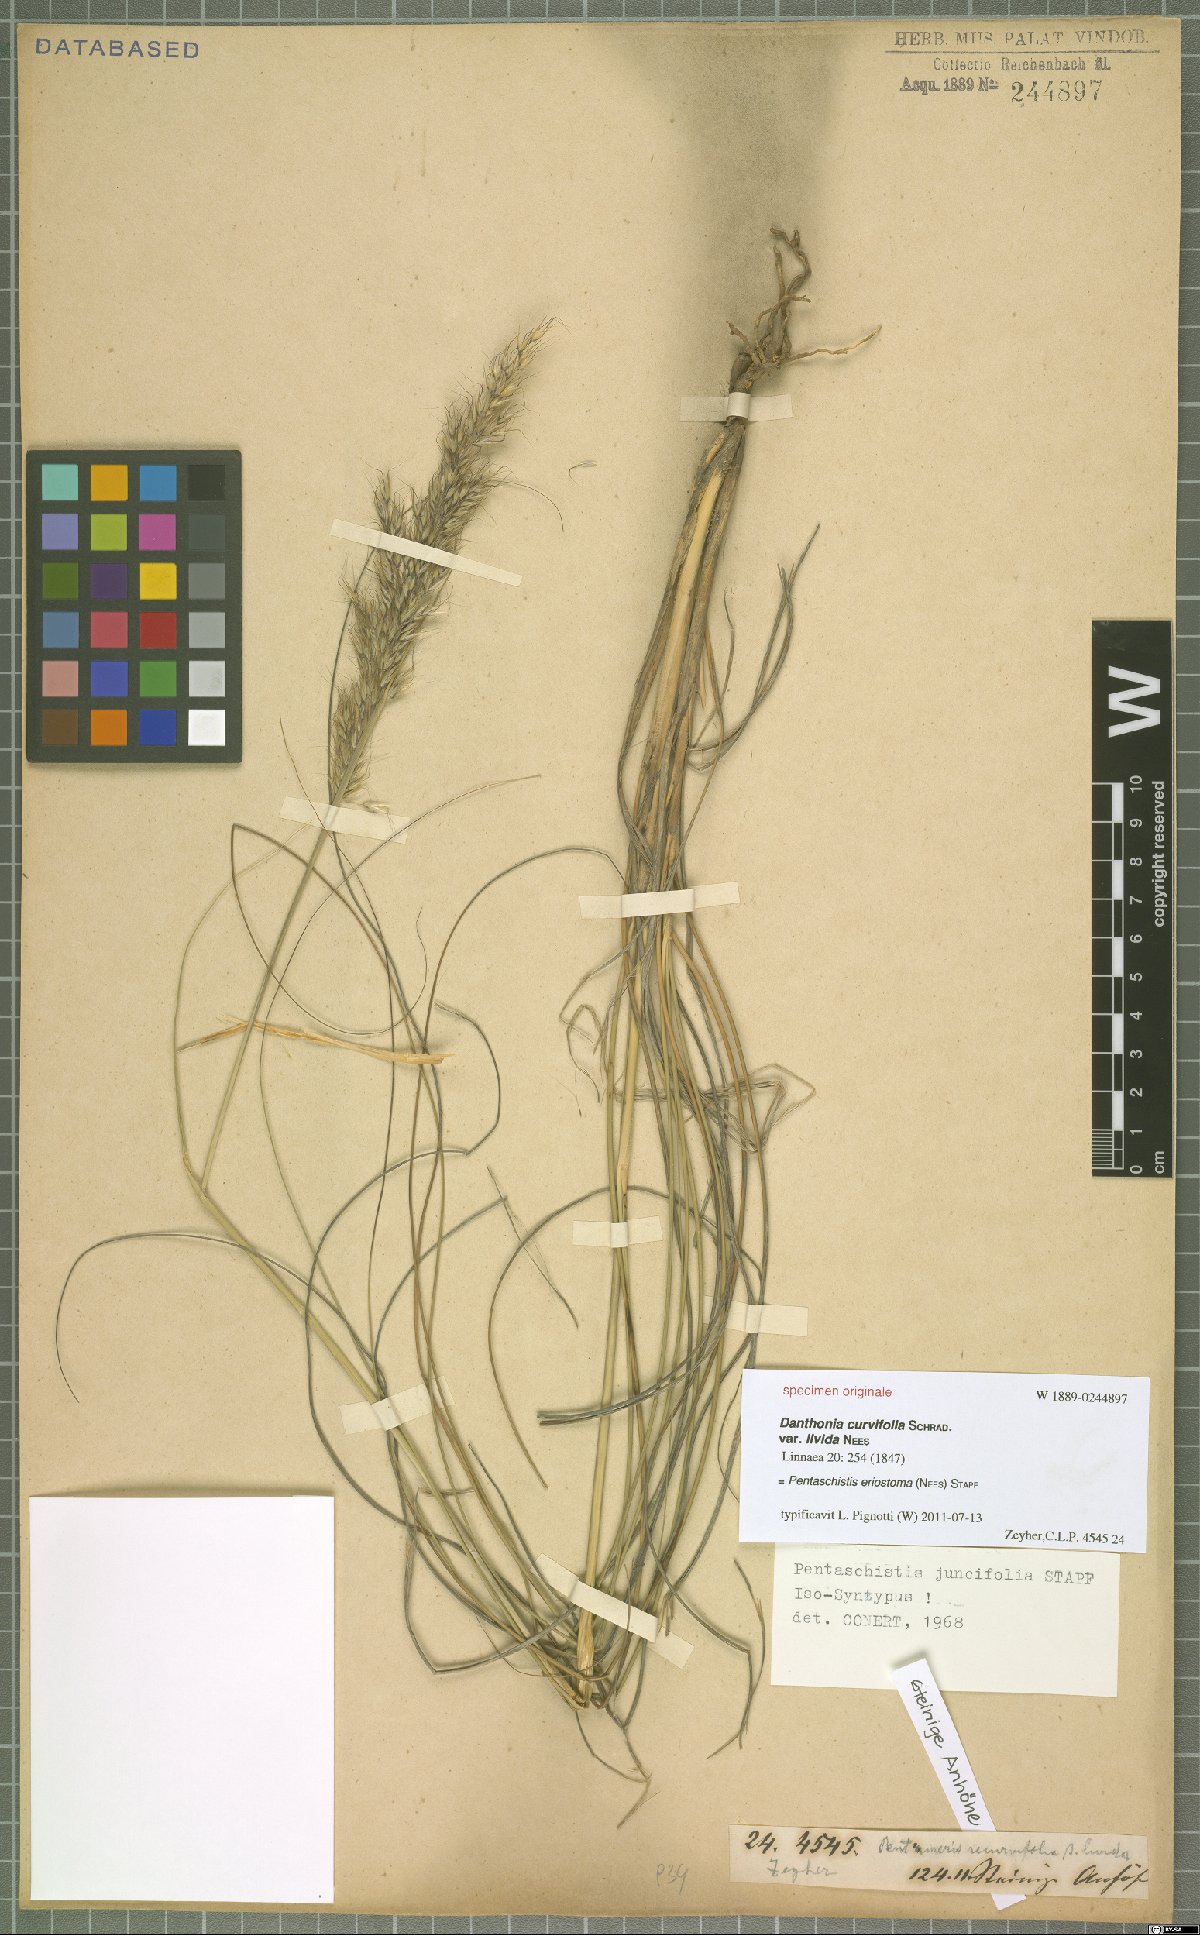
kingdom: Plantae
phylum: Tracheophyta
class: Liliopsida
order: Poales
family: Poaceae
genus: Pentameris
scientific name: Pentameris eriostoma
